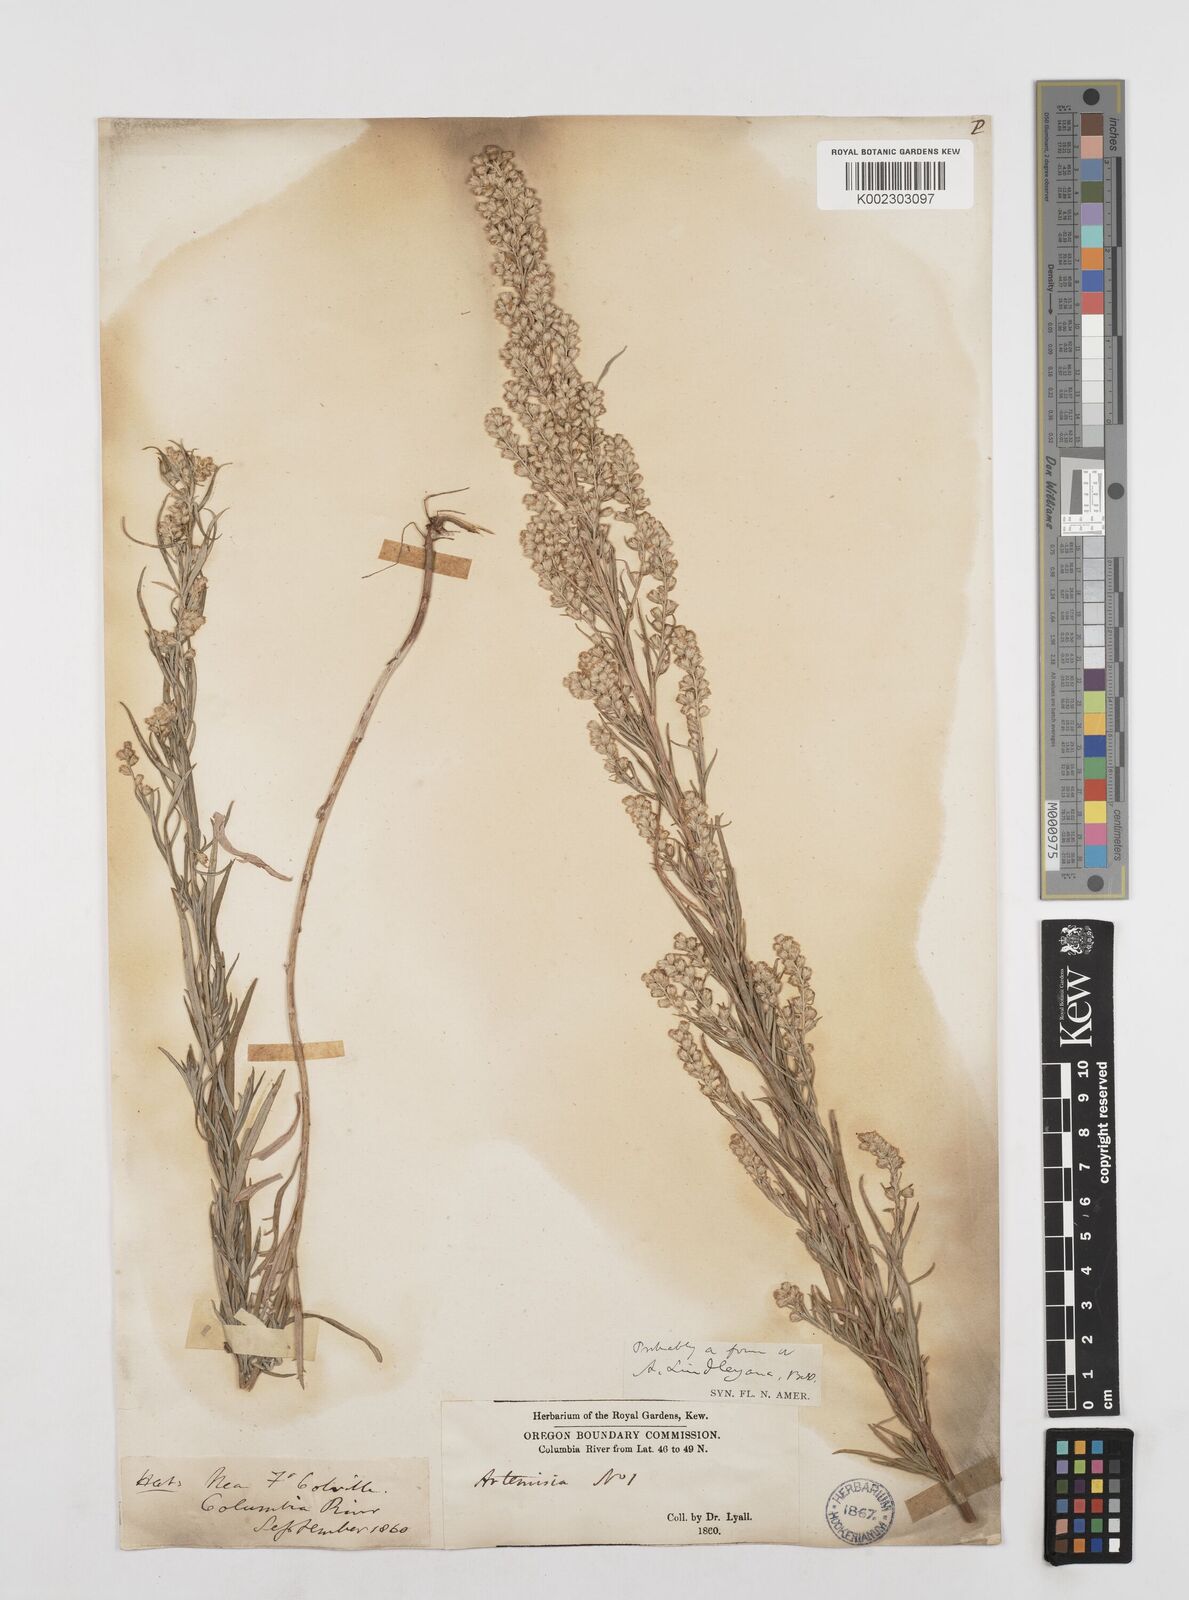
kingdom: Plantae
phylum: Tracheophyta
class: Magnoliopsida
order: Asterales
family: Asteraceae
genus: Artemisia
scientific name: Artemisia ludoviciana
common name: Western mugwort
